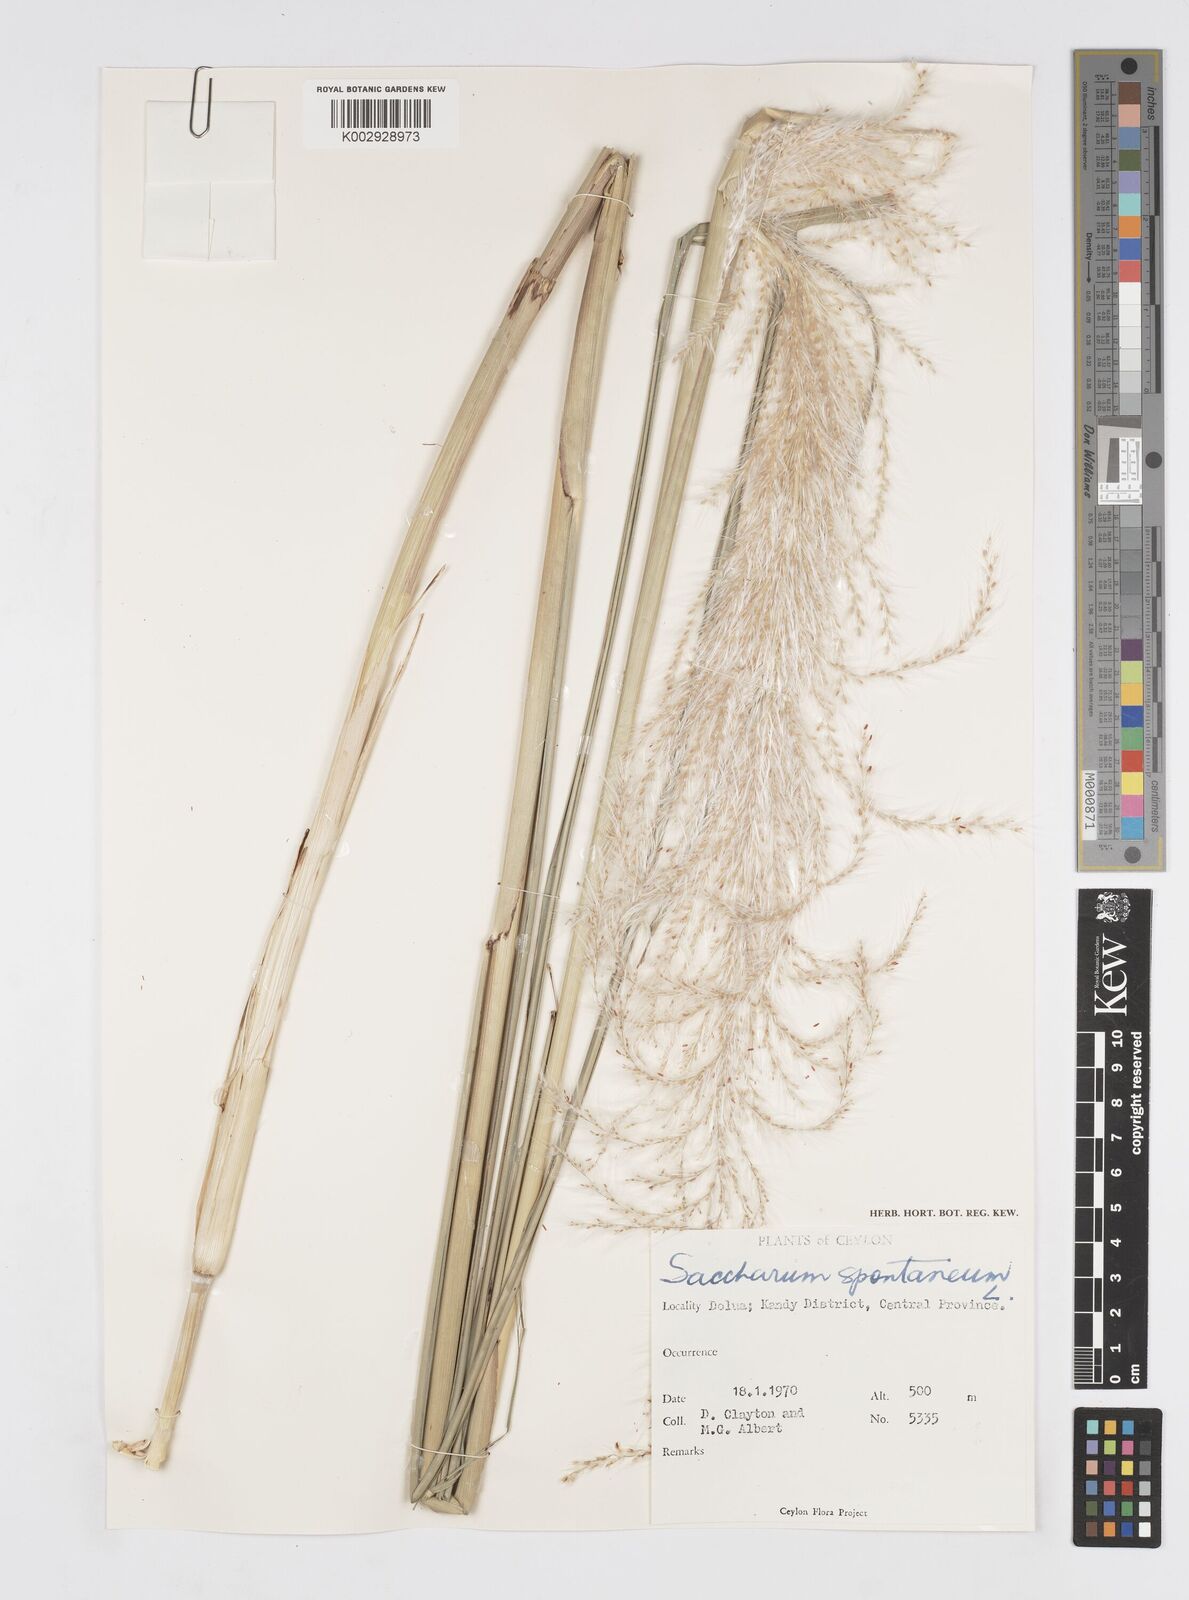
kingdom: Plantae
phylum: Tracheophyta
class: Liliopsida
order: Poales
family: Poaceae
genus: Saccharum
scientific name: Saccharum spontaneum
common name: Wild sugarcane
